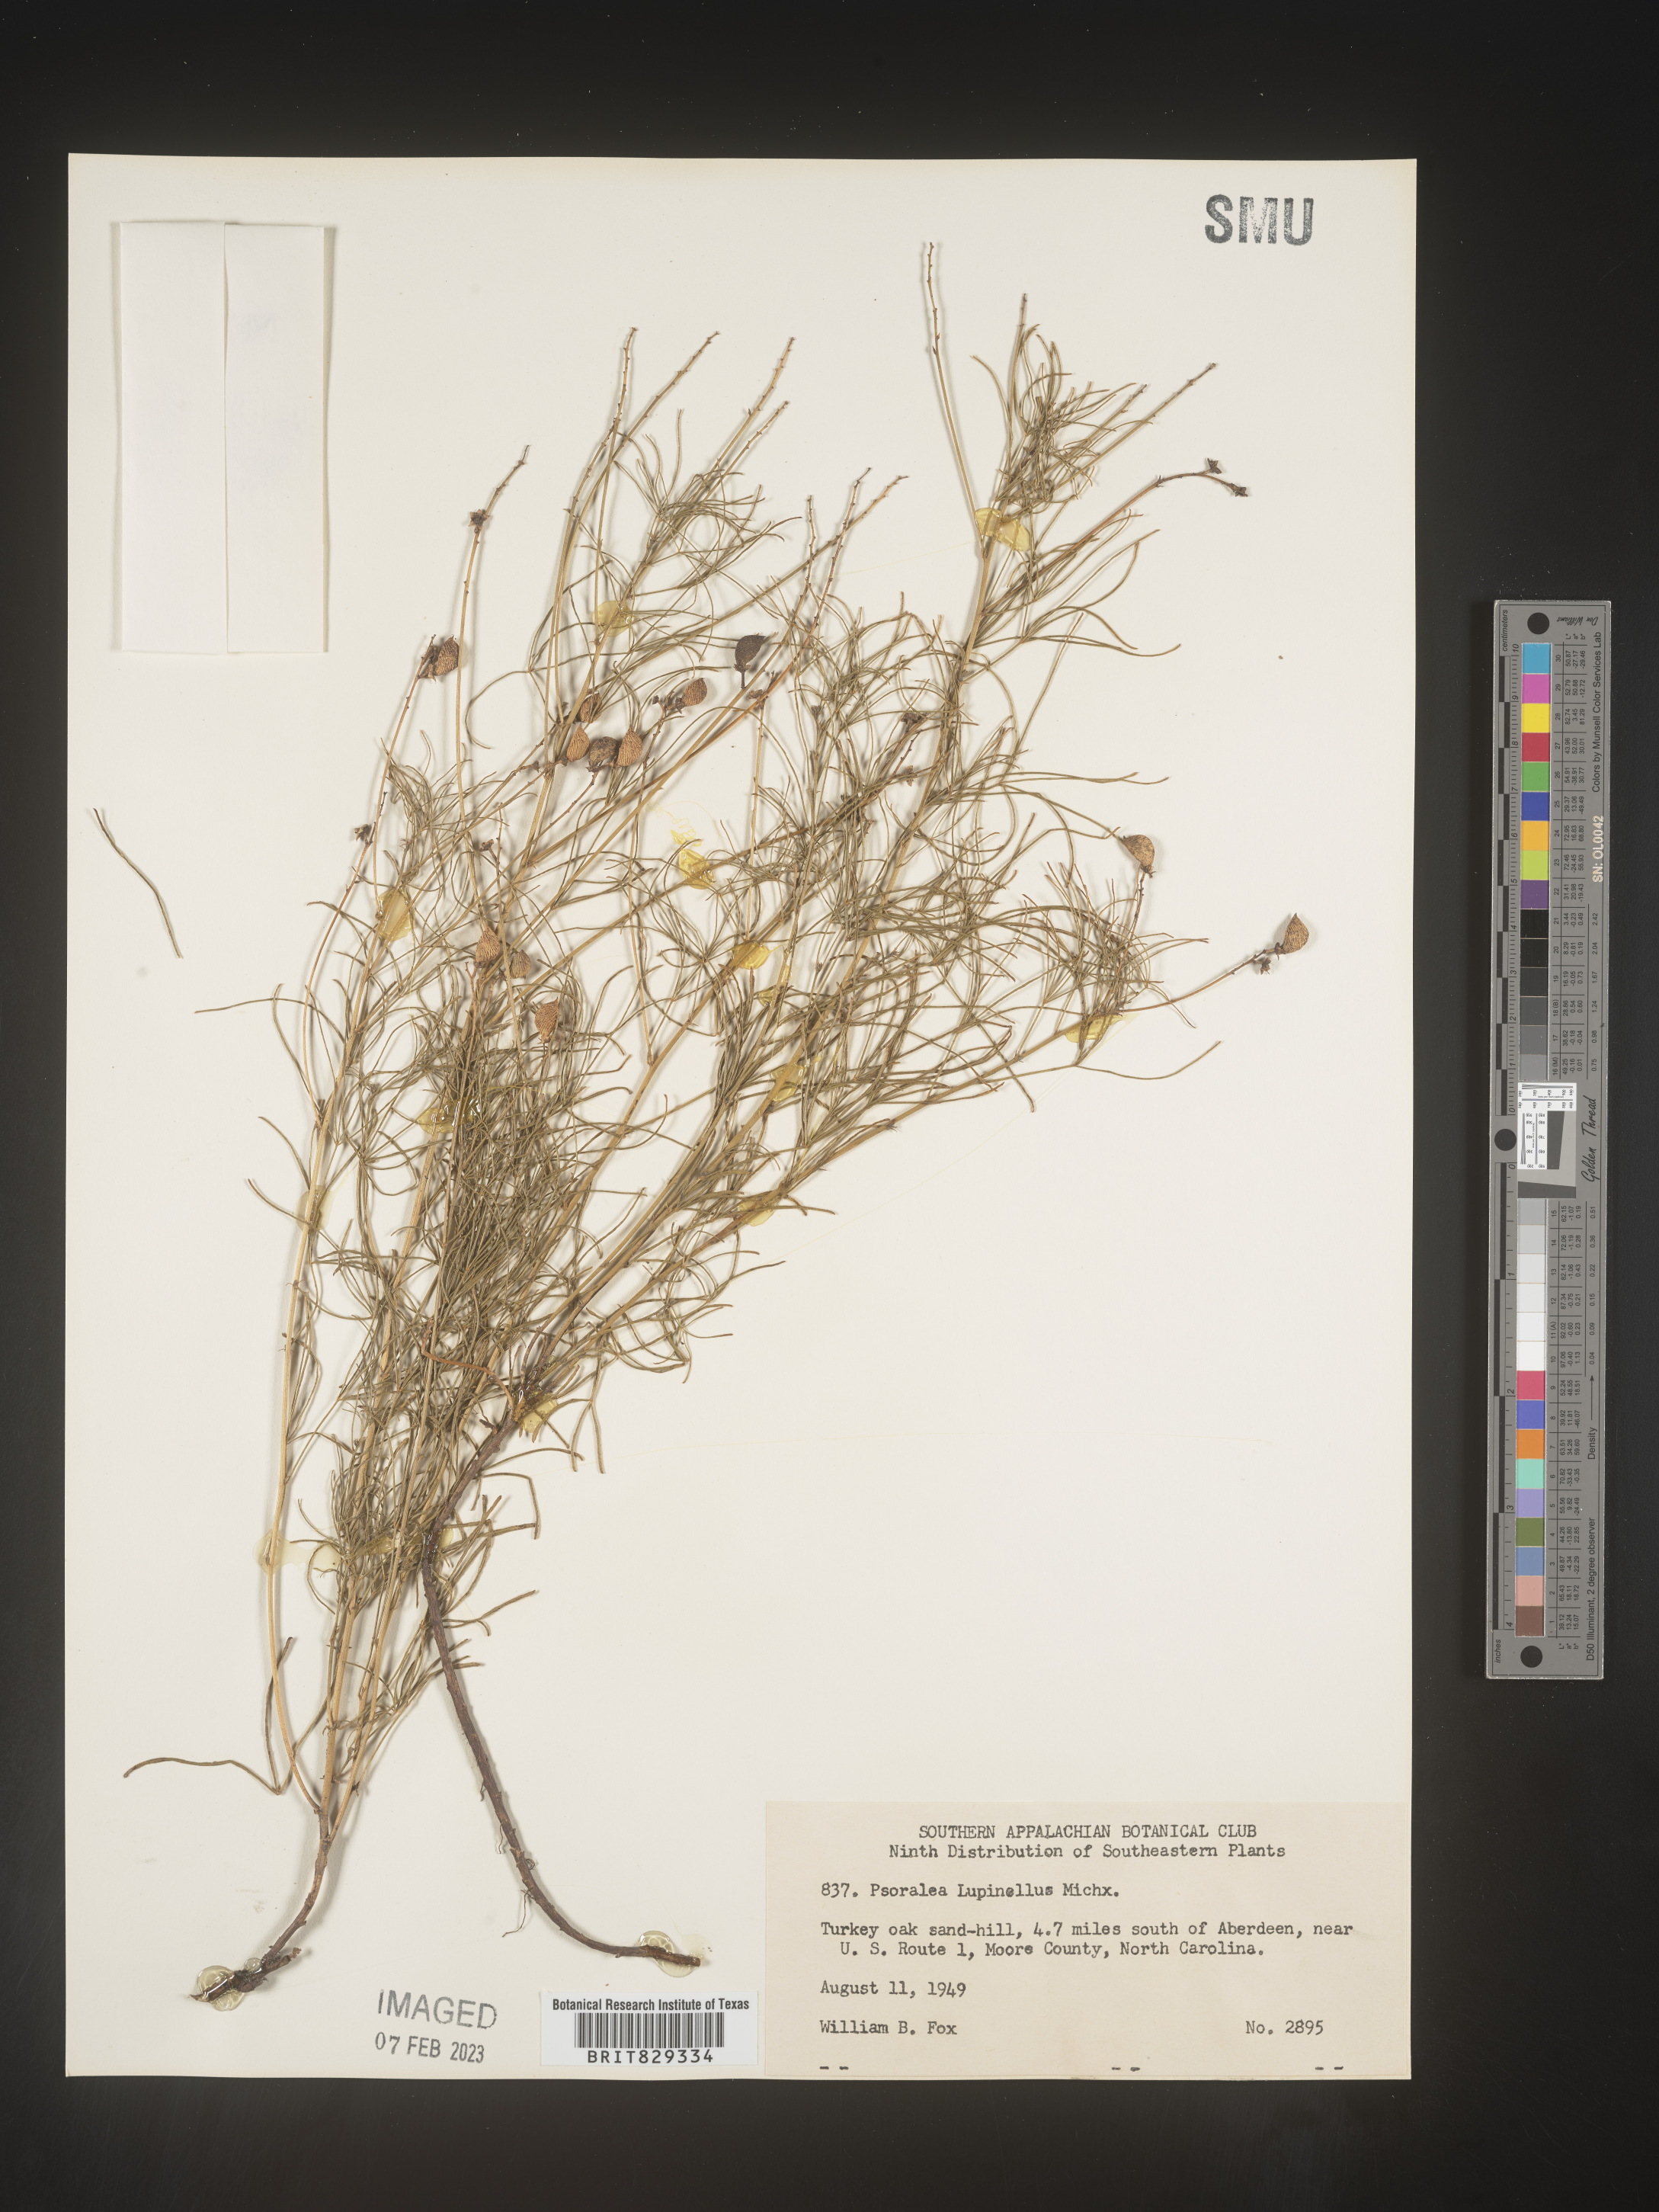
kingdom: Plantae
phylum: Tracheophyta
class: Magnoliopsida
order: Fabales
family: Fabaceae
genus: Psoralea
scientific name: Psoralea
